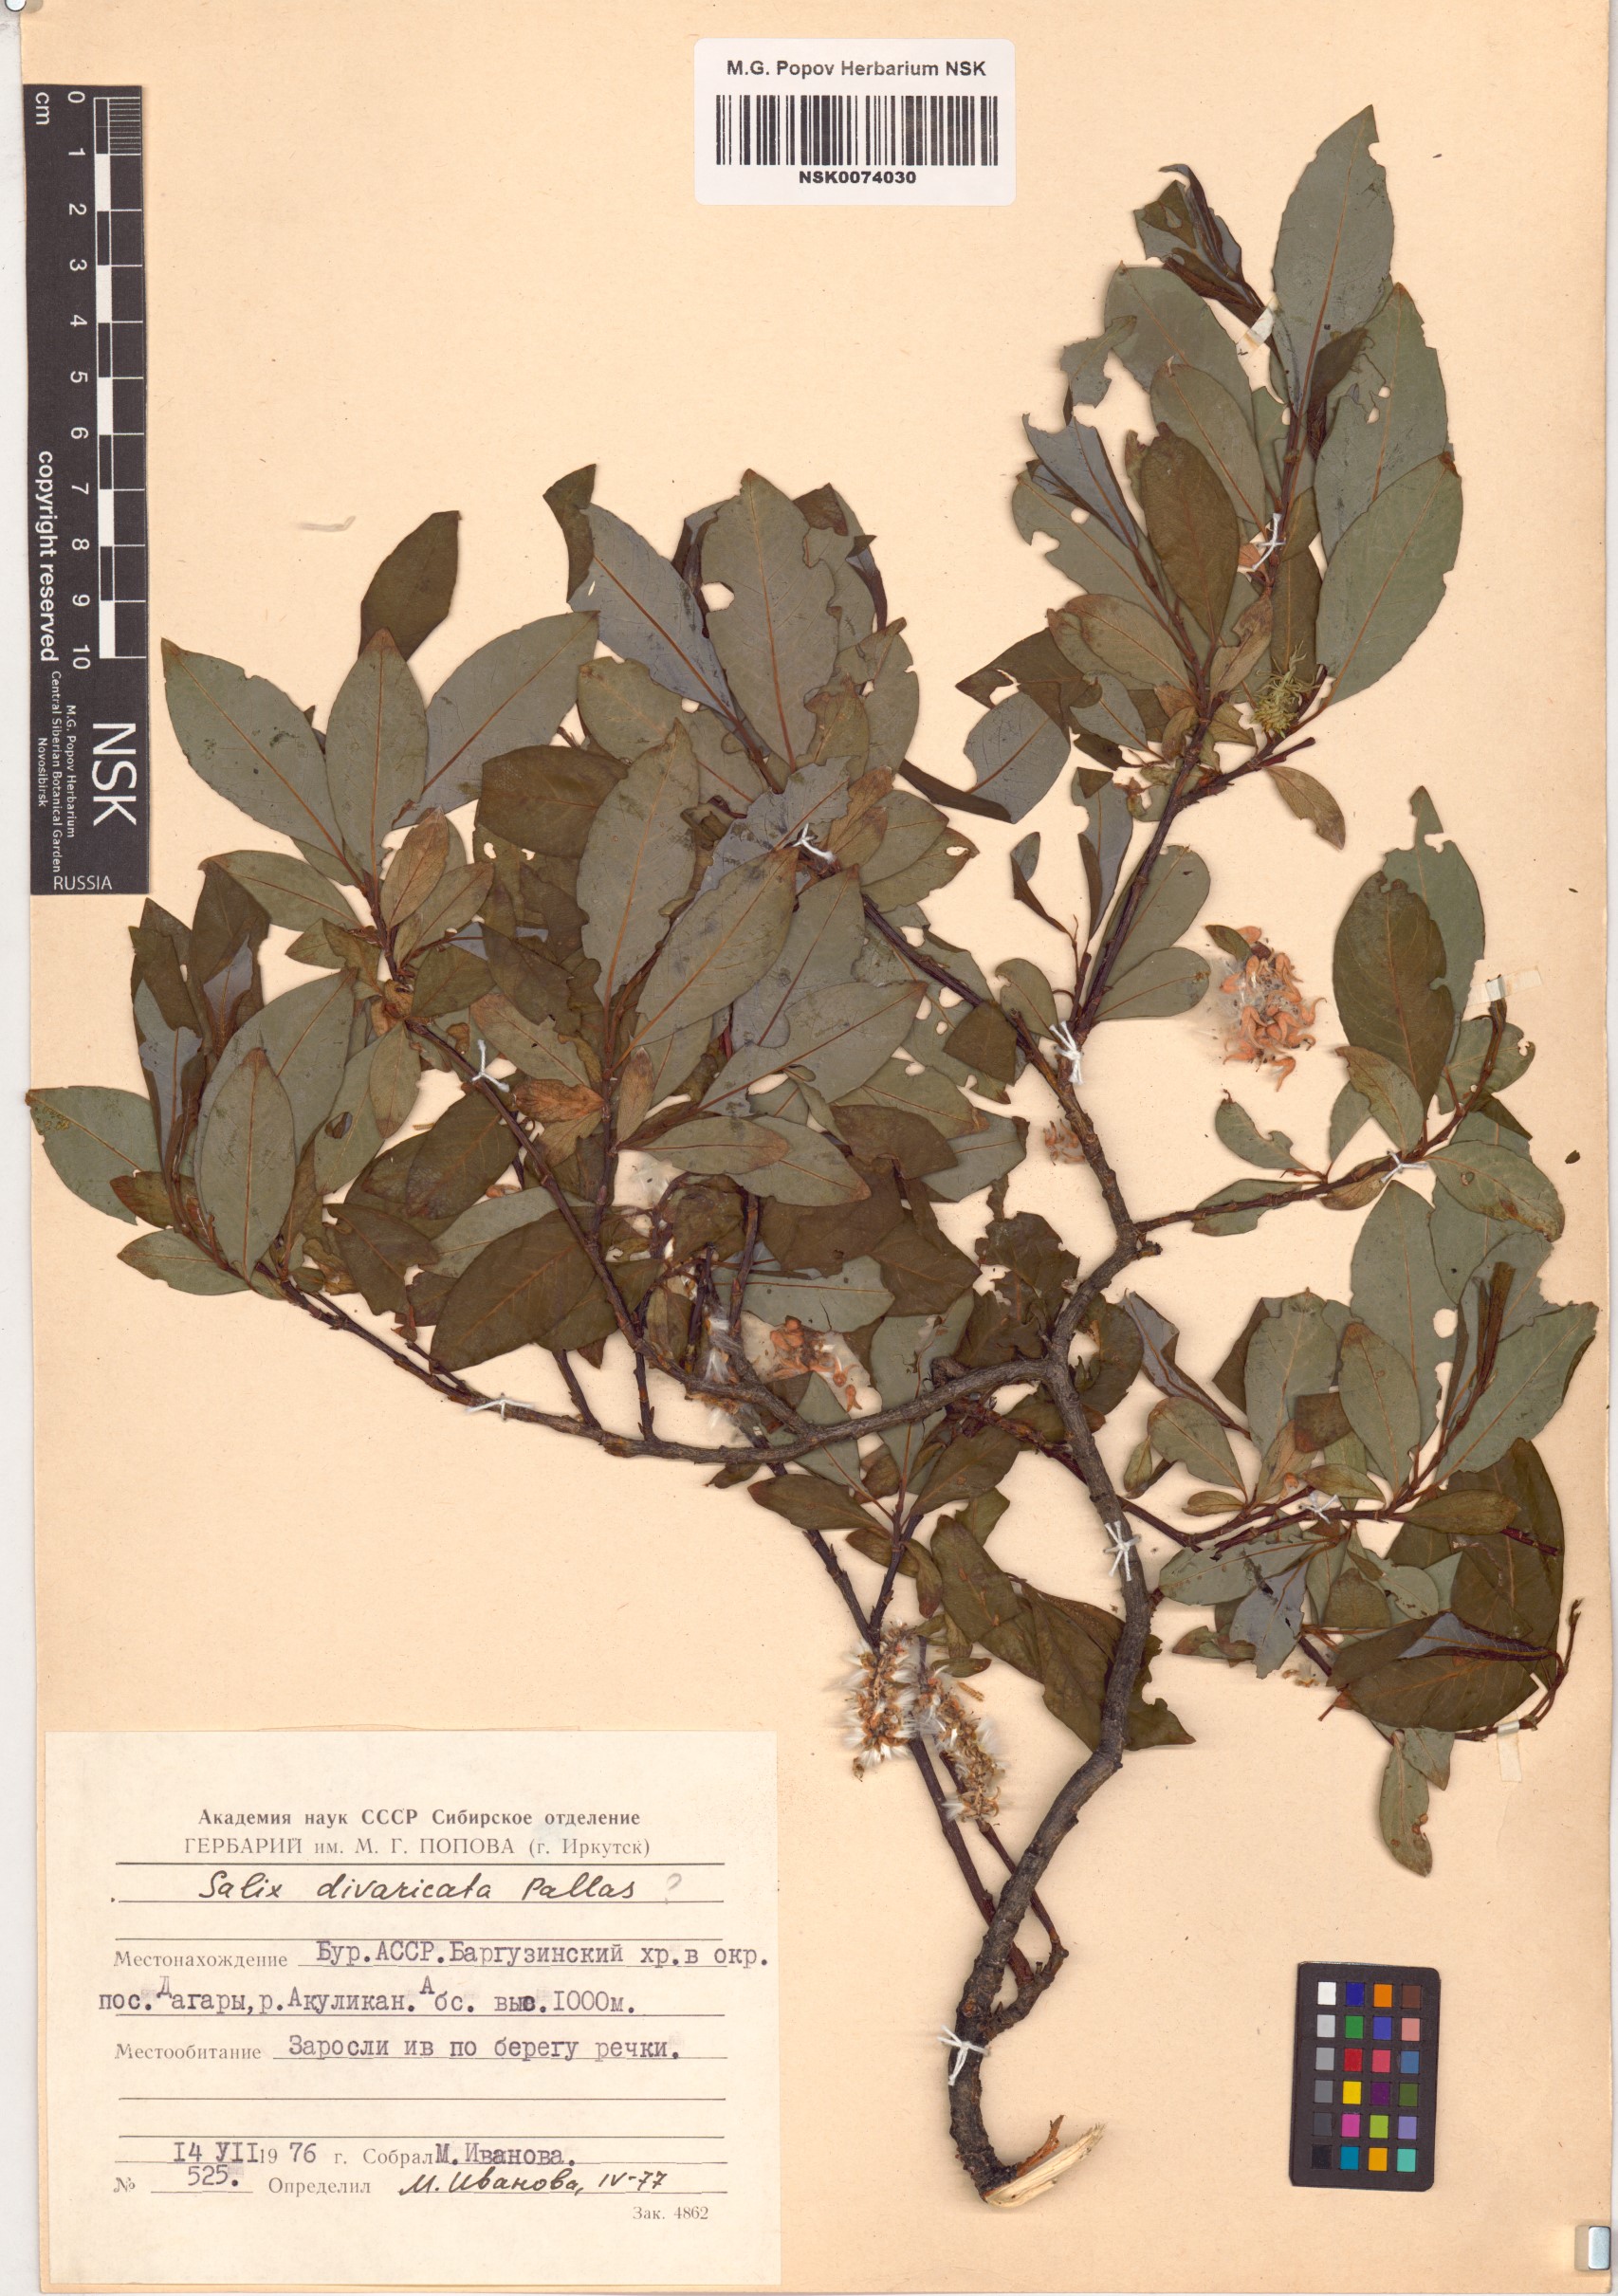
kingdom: Plantae
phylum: Tracheophyta
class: Magnoliopsida
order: Malpighiales
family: Salicaceae
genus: Salix
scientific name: Salix divaricata
